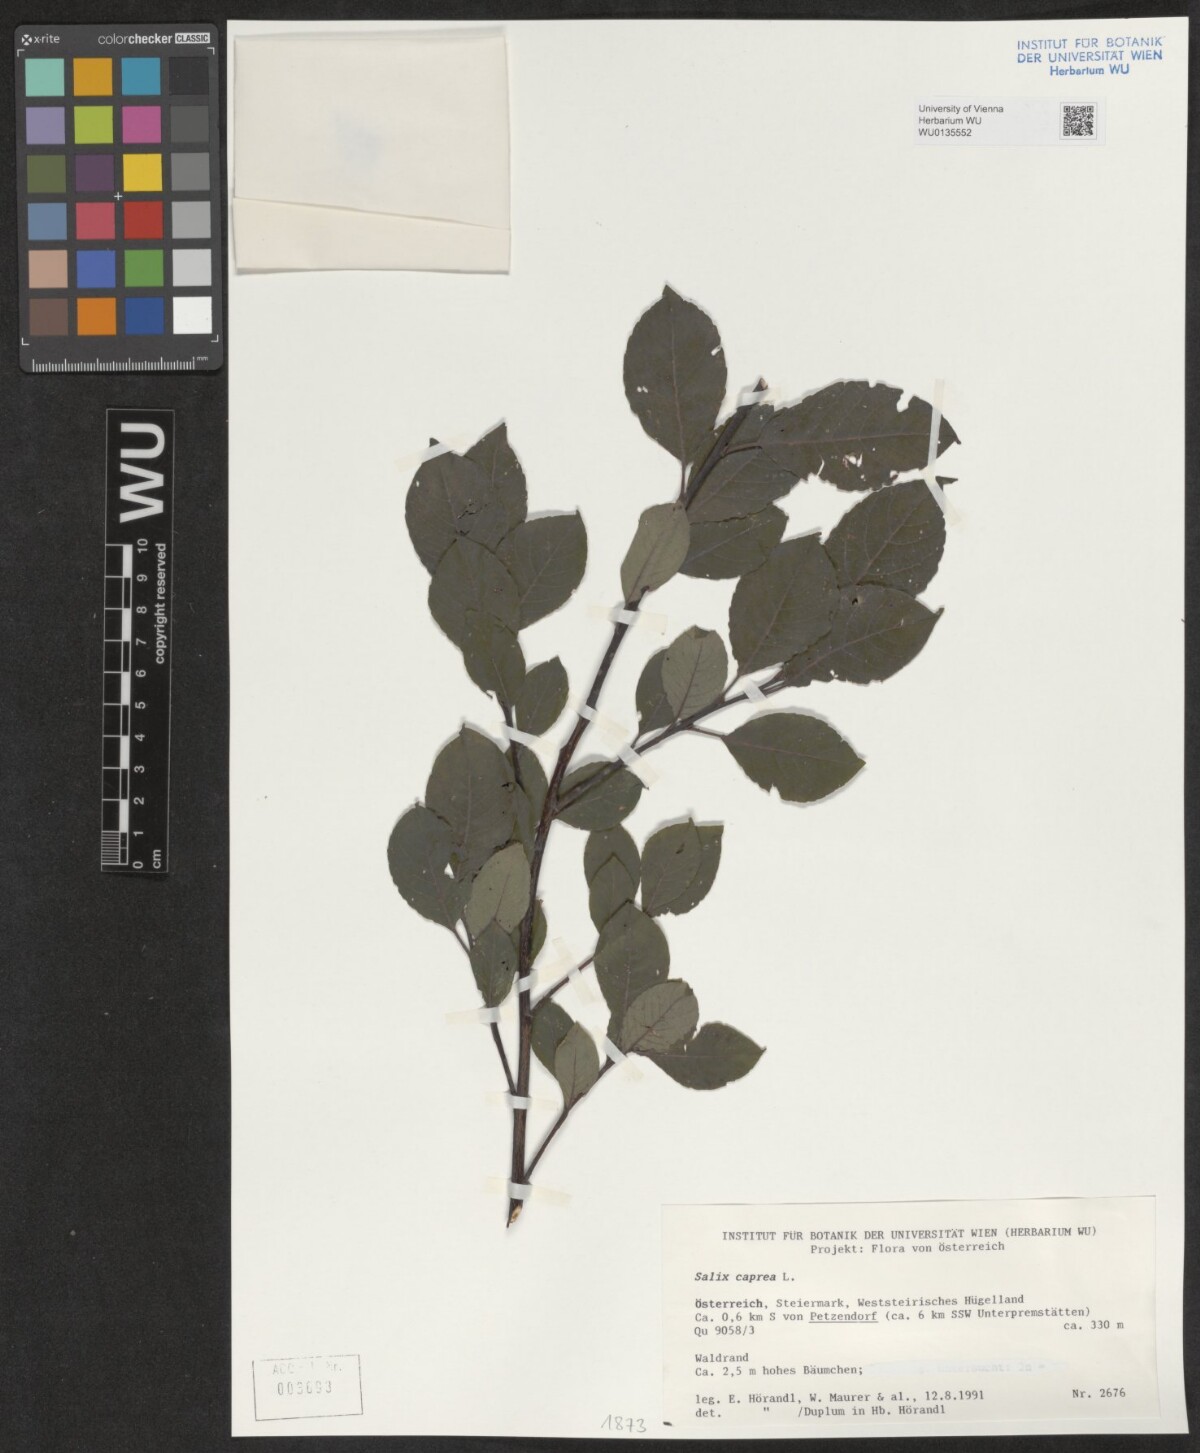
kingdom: Plantae
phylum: Tracheophyta
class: Magnoliopsida
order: Malpighiales
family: Salicaceae
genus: Salix
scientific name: Salix caprea
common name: Goat willow
